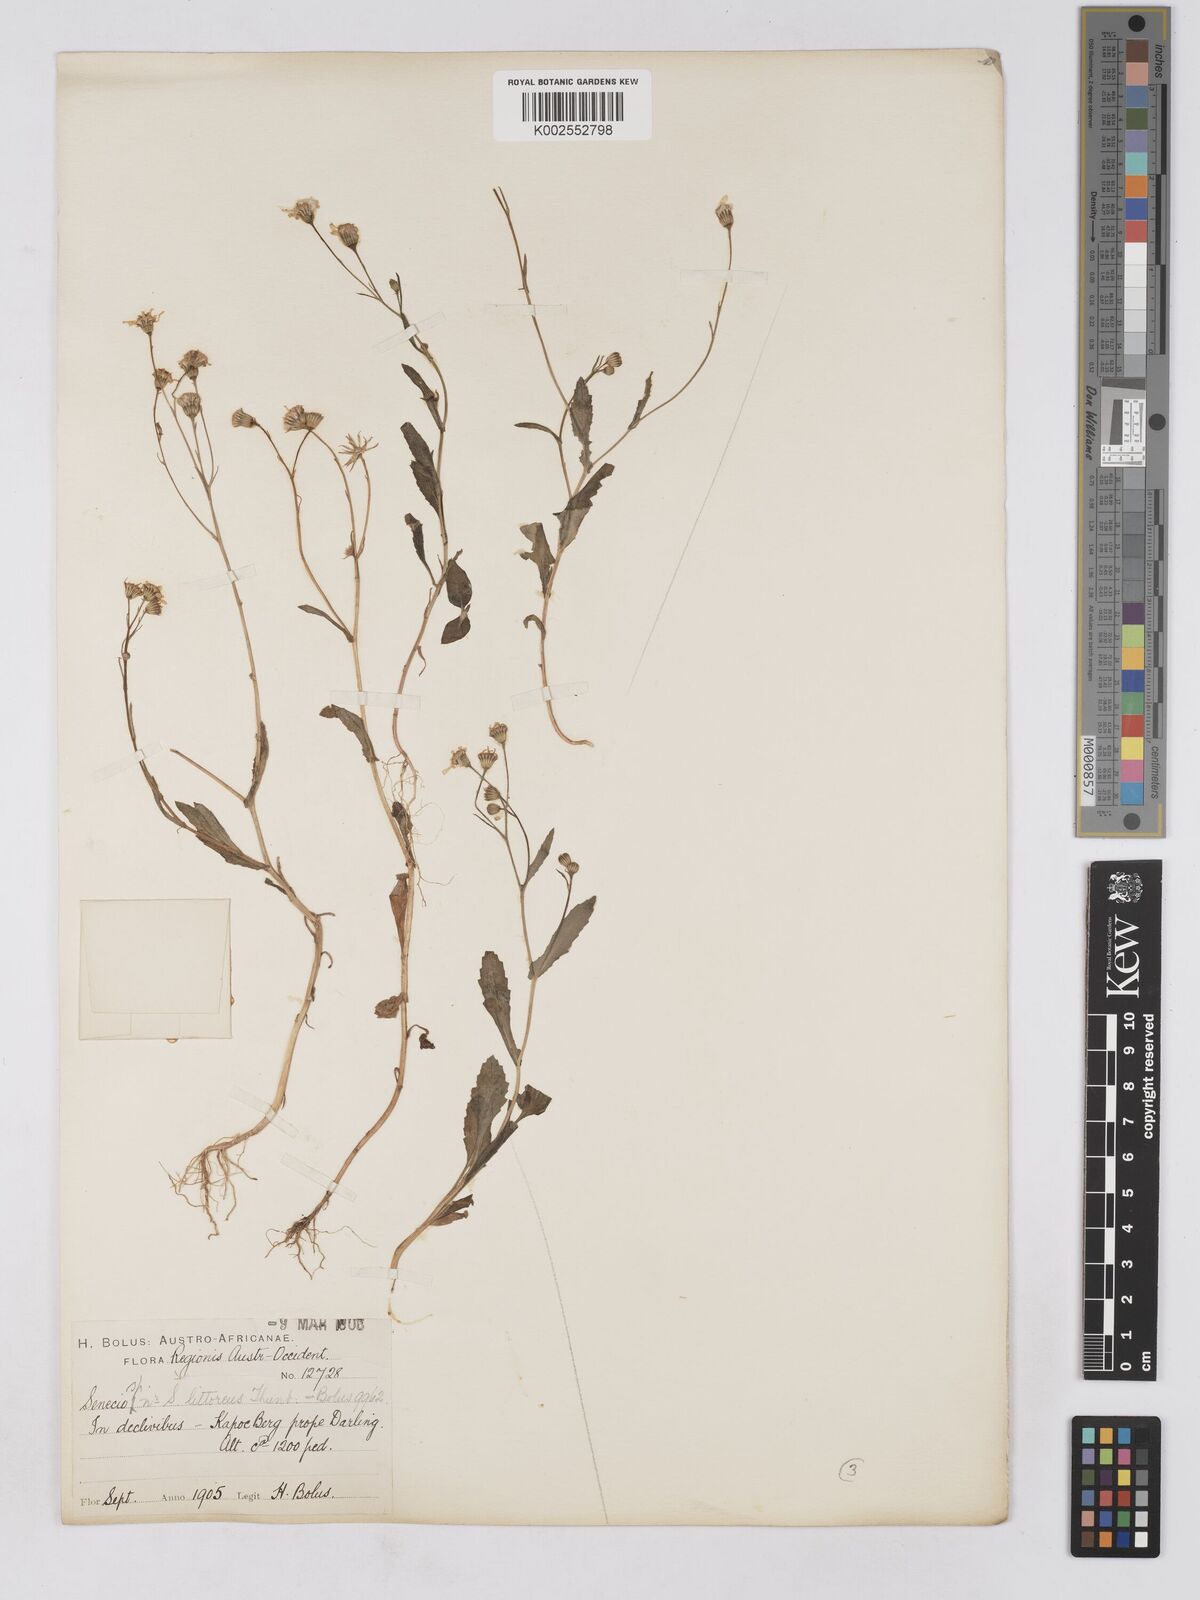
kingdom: Plantae
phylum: Tracheophyta
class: Magnoliopsida
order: Asterales
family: Asteraceae
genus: Senecio
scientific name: Senecio abruptus
